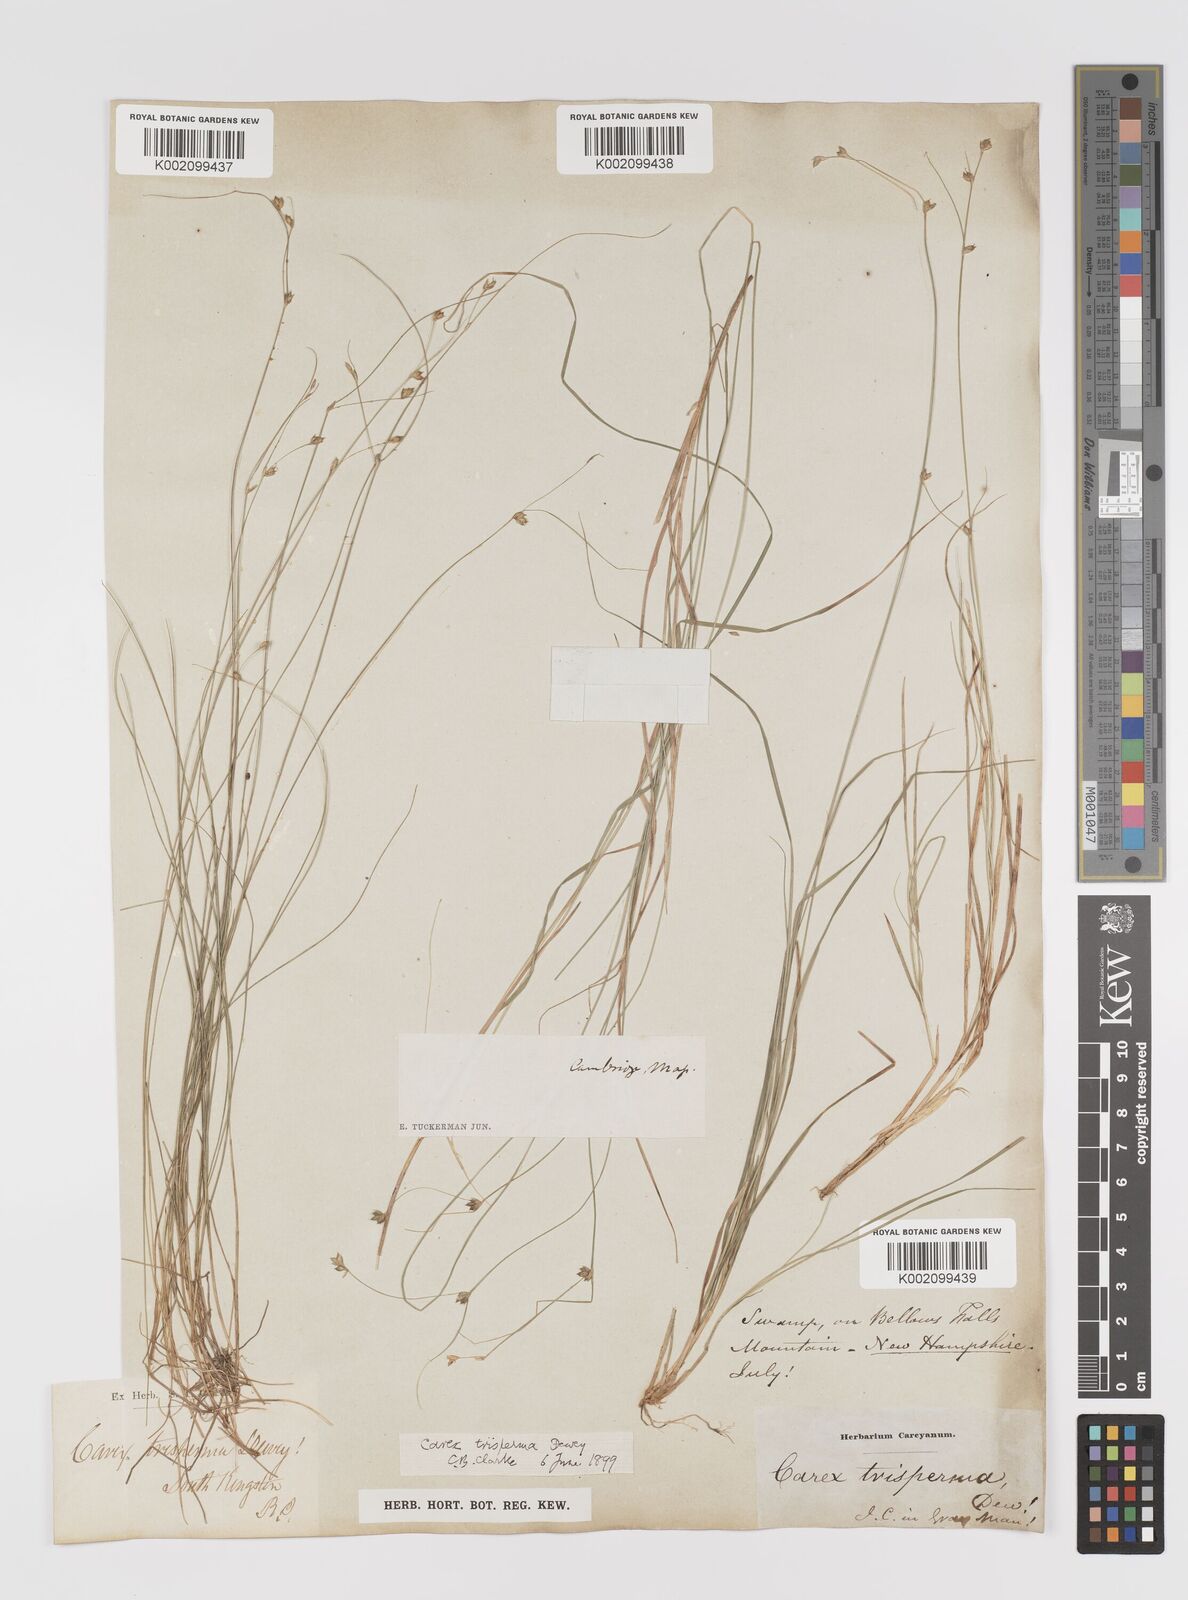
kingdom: Plantae
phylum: Tracheophyta
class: Liliopsida
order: Poales
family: Cyperaceae
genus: Carex
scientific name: Carex trisperma
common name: Three-seeded sedge
